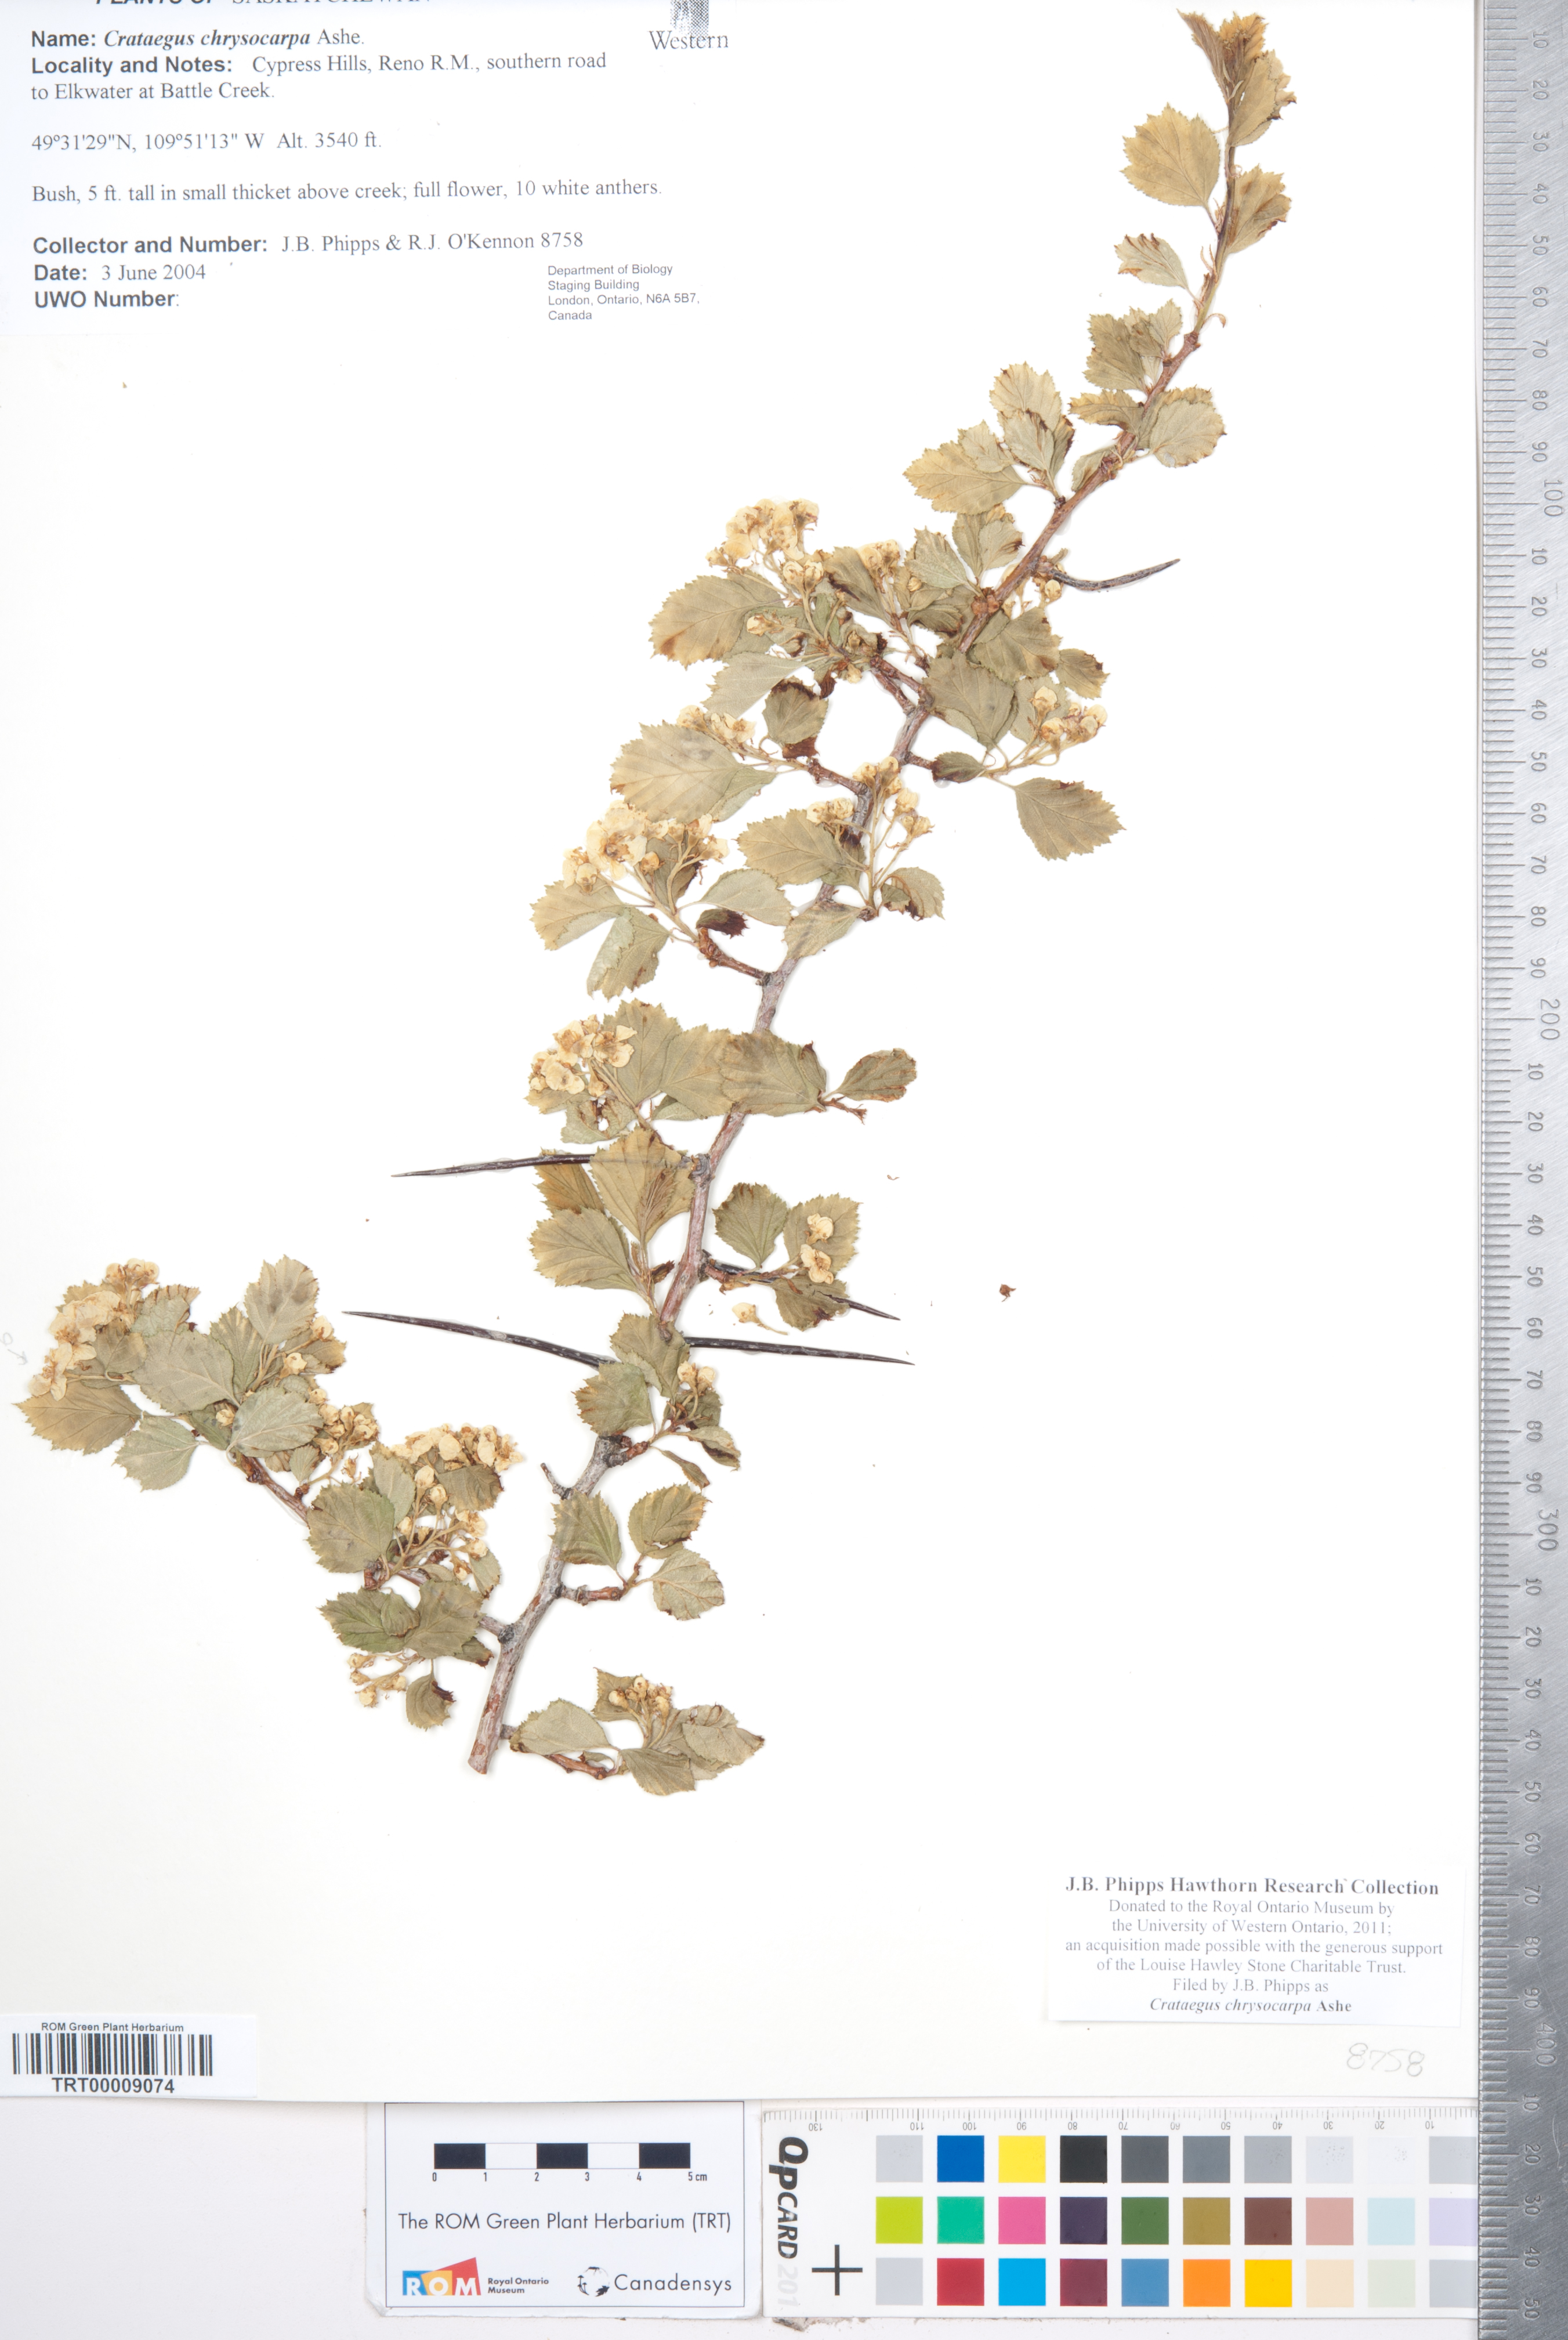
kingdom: Plantae
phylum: Tracheophyta
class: Magnoliopsida
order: Rosales
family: Rosaceae
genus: Crataegus
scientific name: Crataegus chrysocarpa
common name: Fire-berry hawthorn
